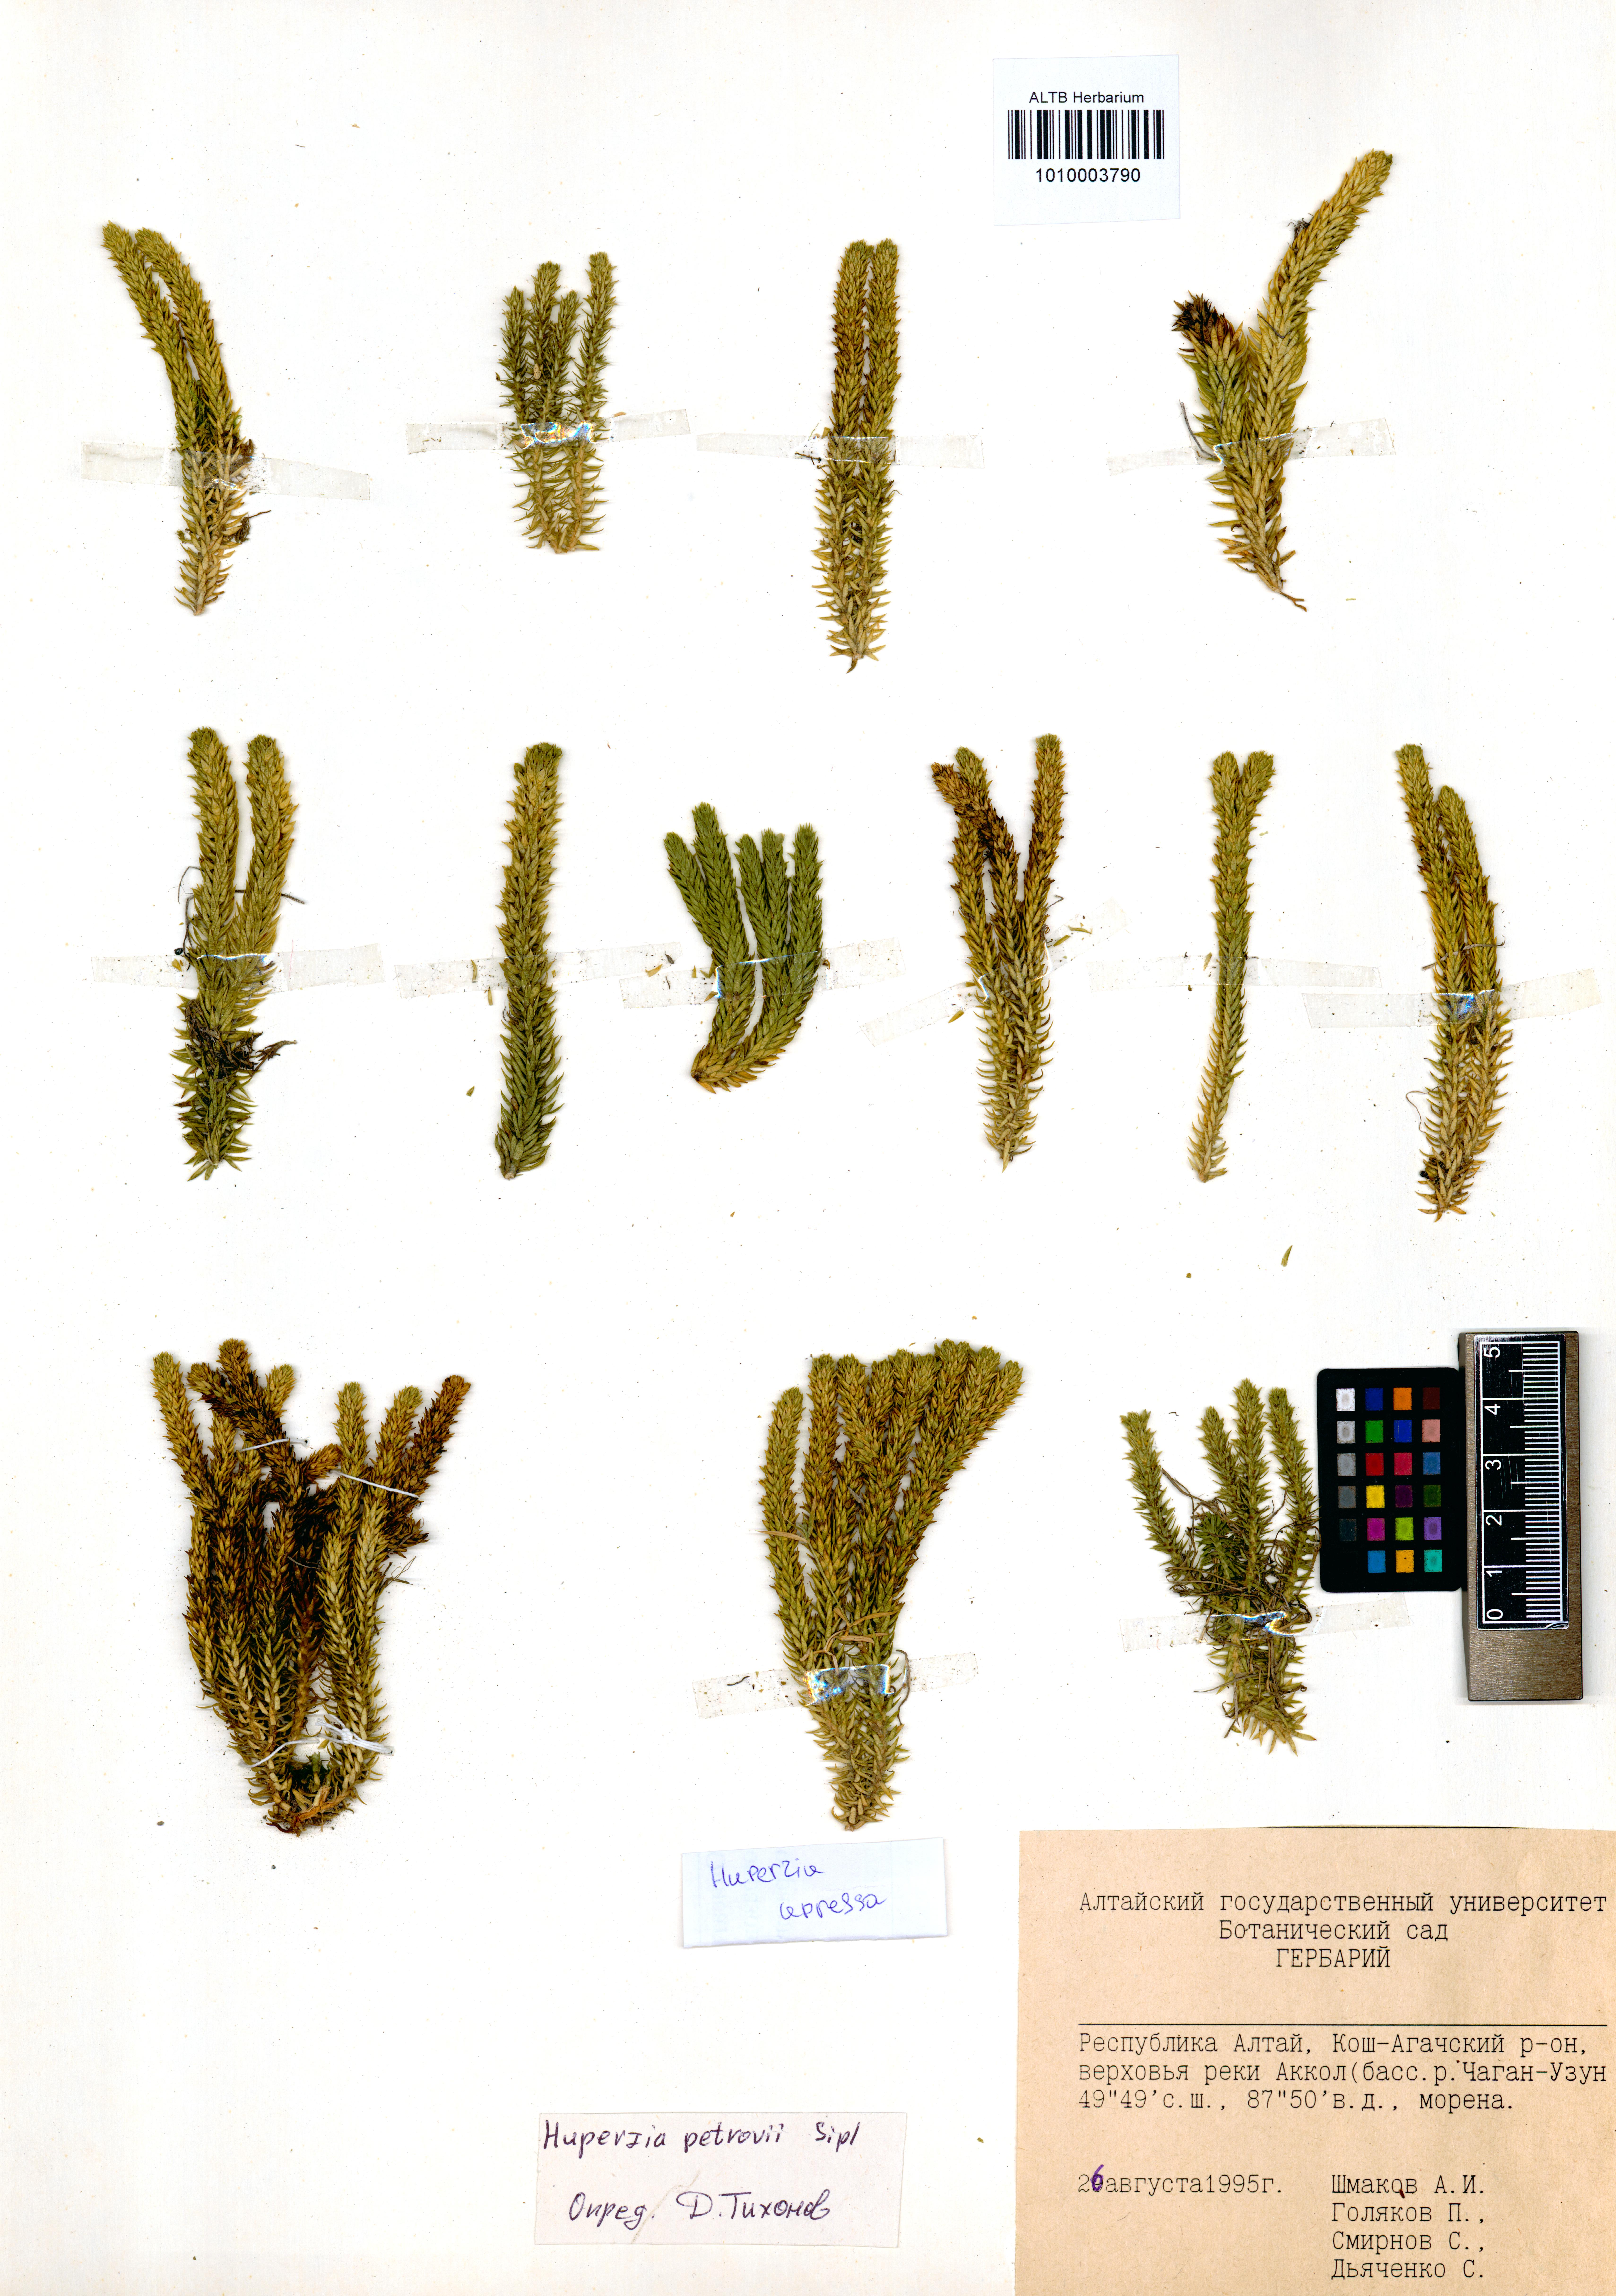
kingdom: Plantae
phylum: Tracheophyta
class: Lycopodiopsida
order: Lycopodiales
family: Lycopodiaceae
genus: Huperzia
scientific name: Huperzia selago
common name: Northern firmoss
